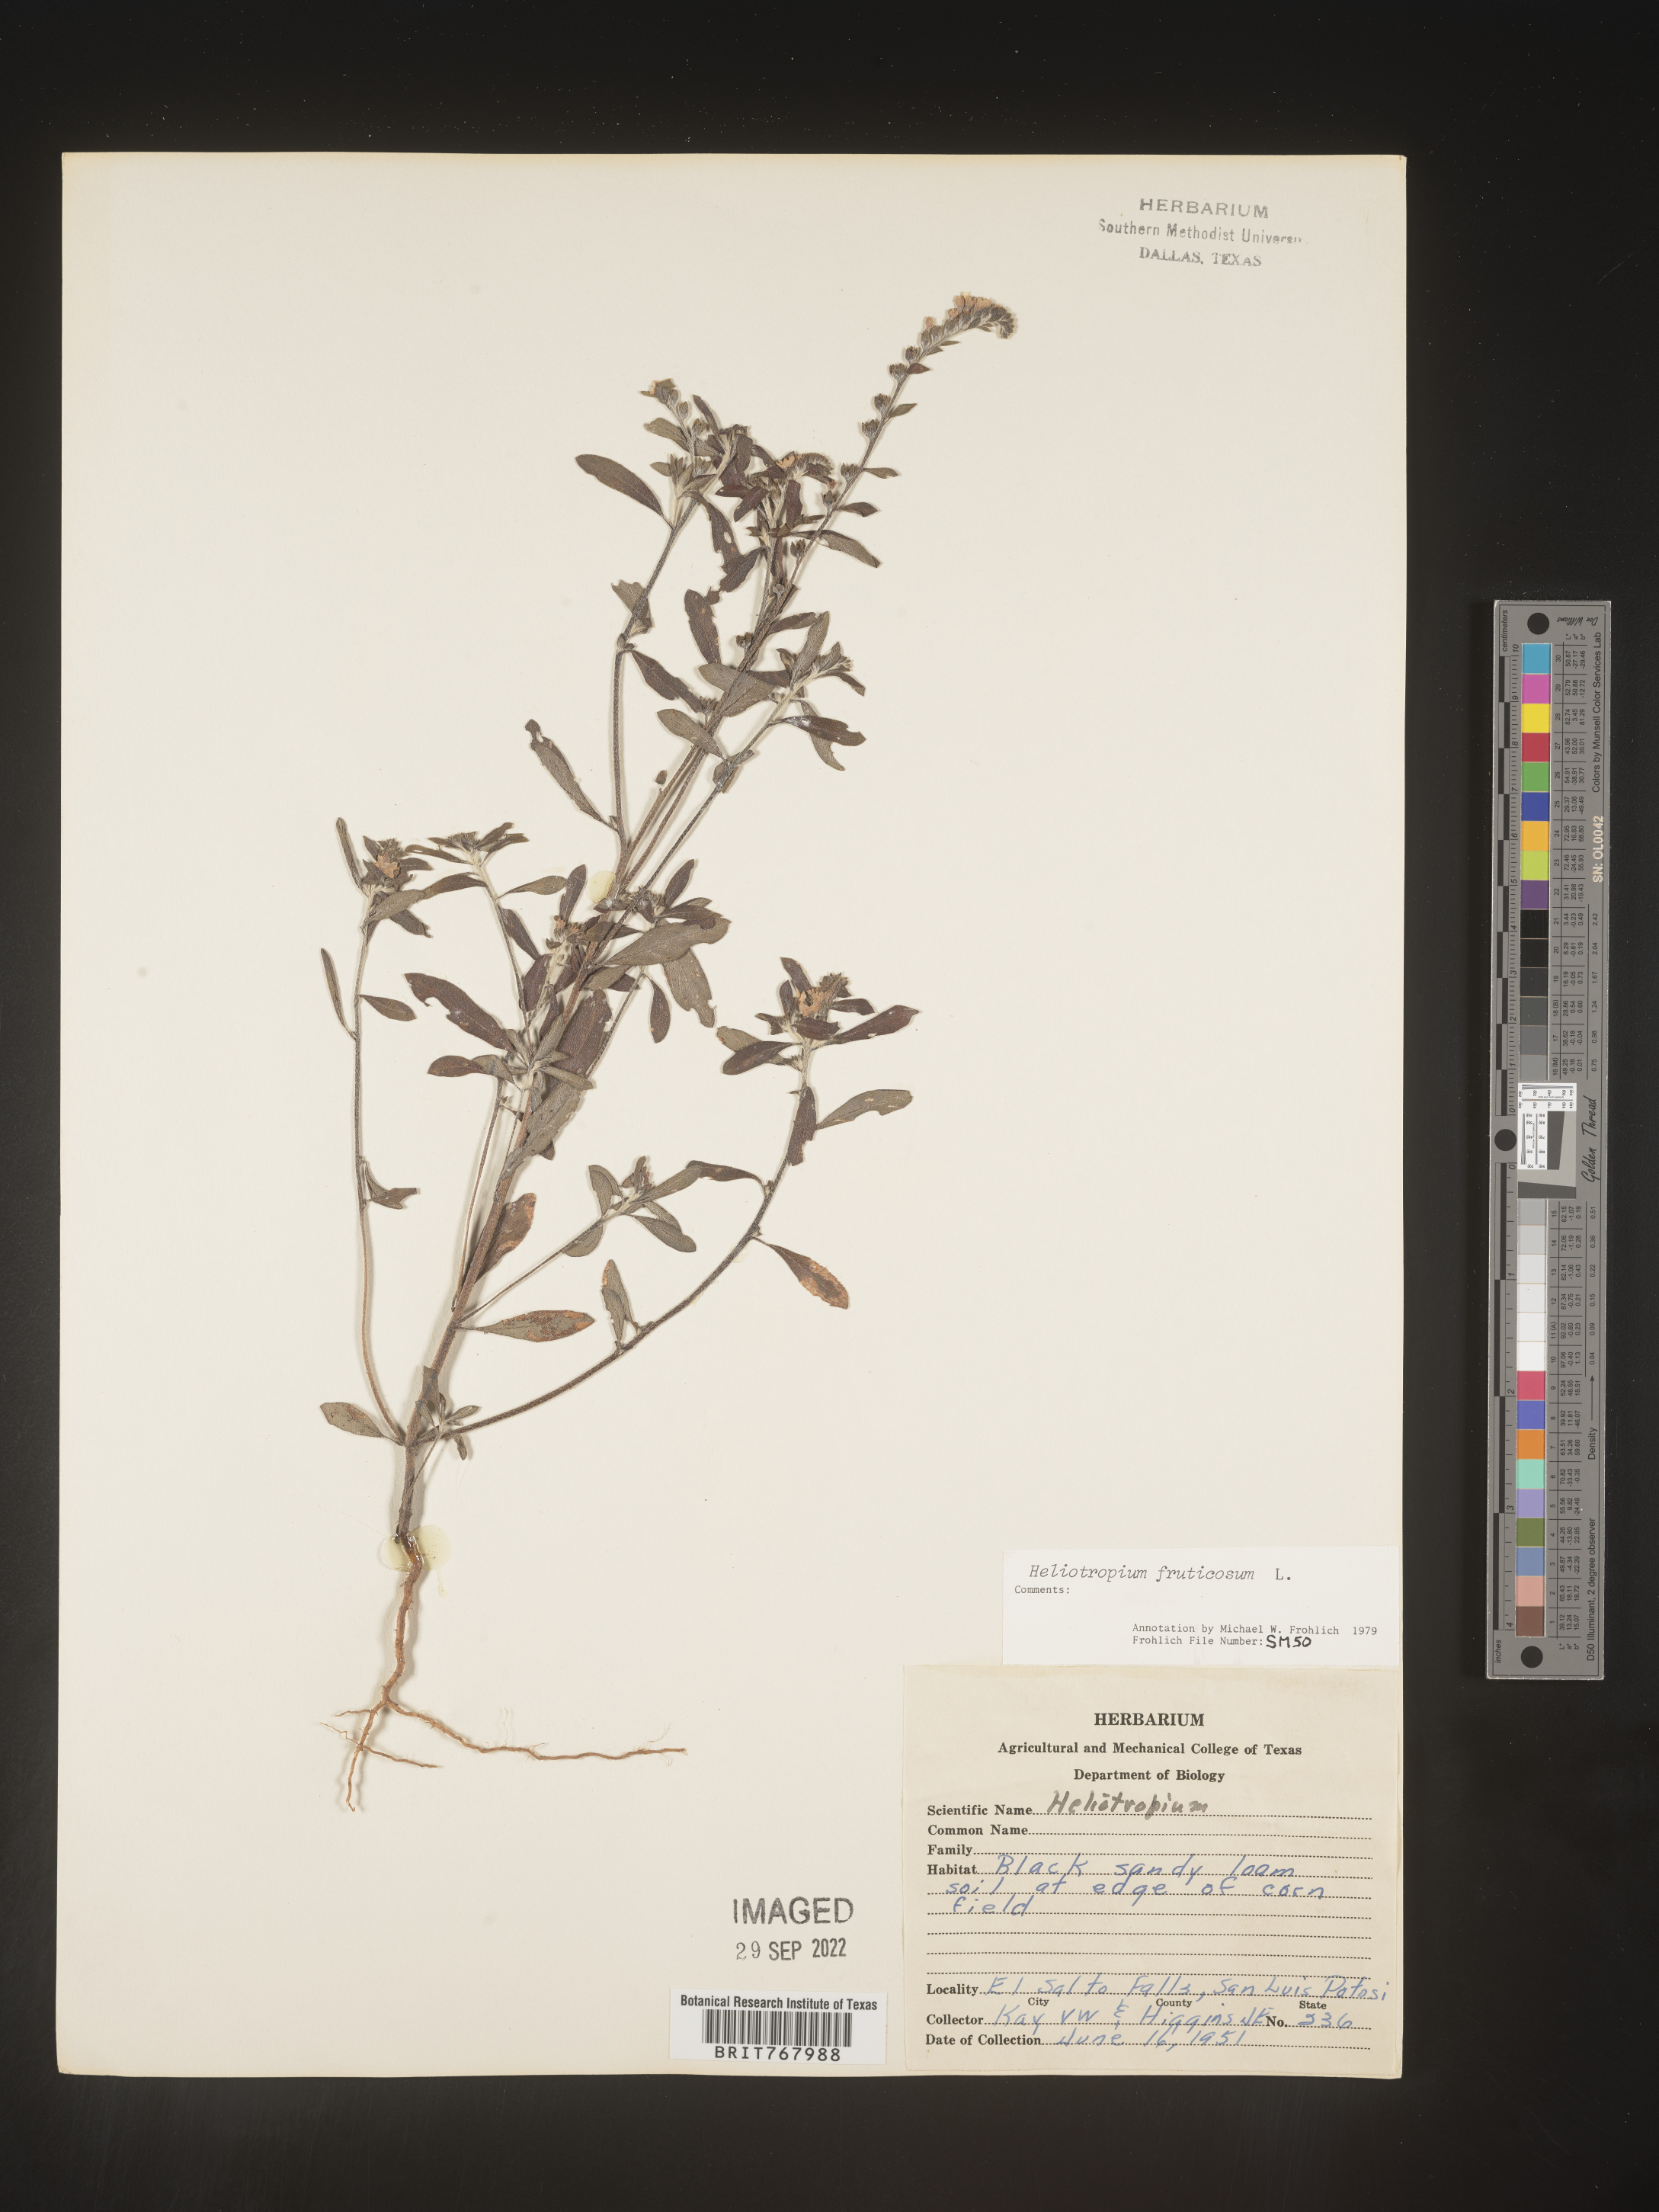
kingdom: Plantae
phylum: Tracheophyta
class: Magnoliopsida
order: Boraginales
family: Heliotropiaceae
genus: Heliotropium
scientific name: Heliotropium
